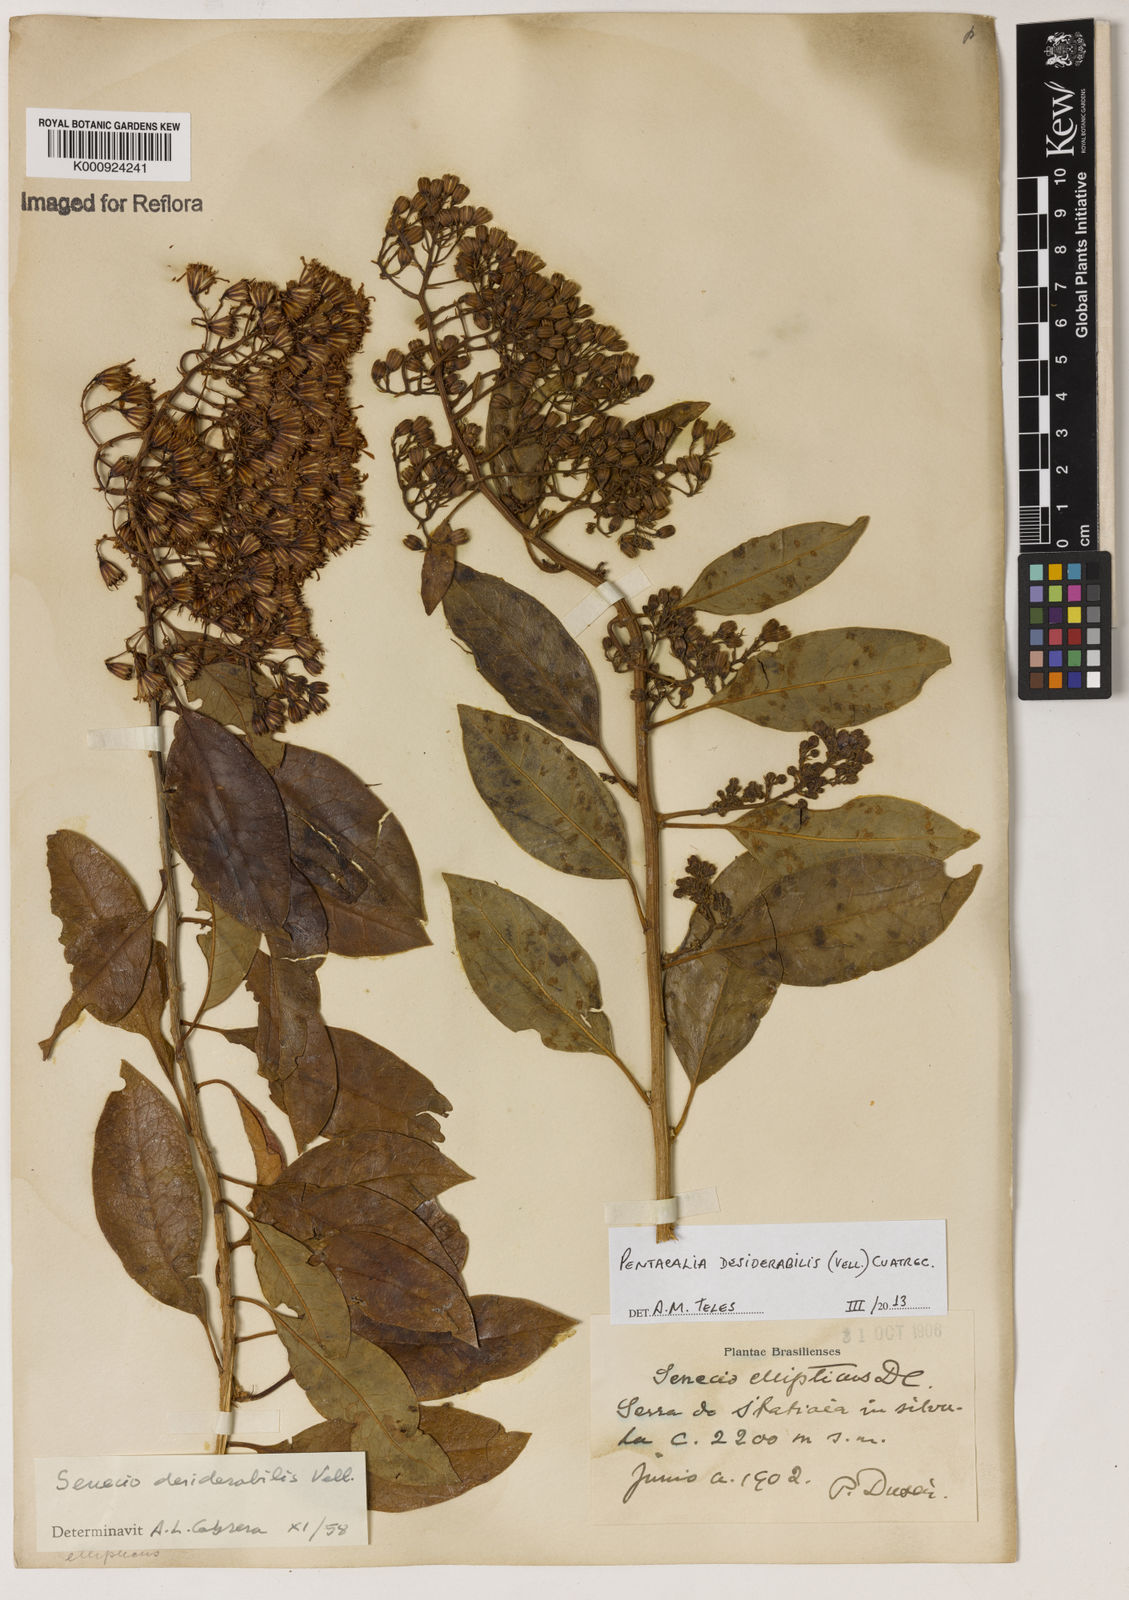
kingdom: Plantae
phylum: Tracheophyta
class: Magnoliopsida
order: Asterales
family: Asteraceae
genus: Pentacalia
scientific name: Pentacalia desiderabilis
